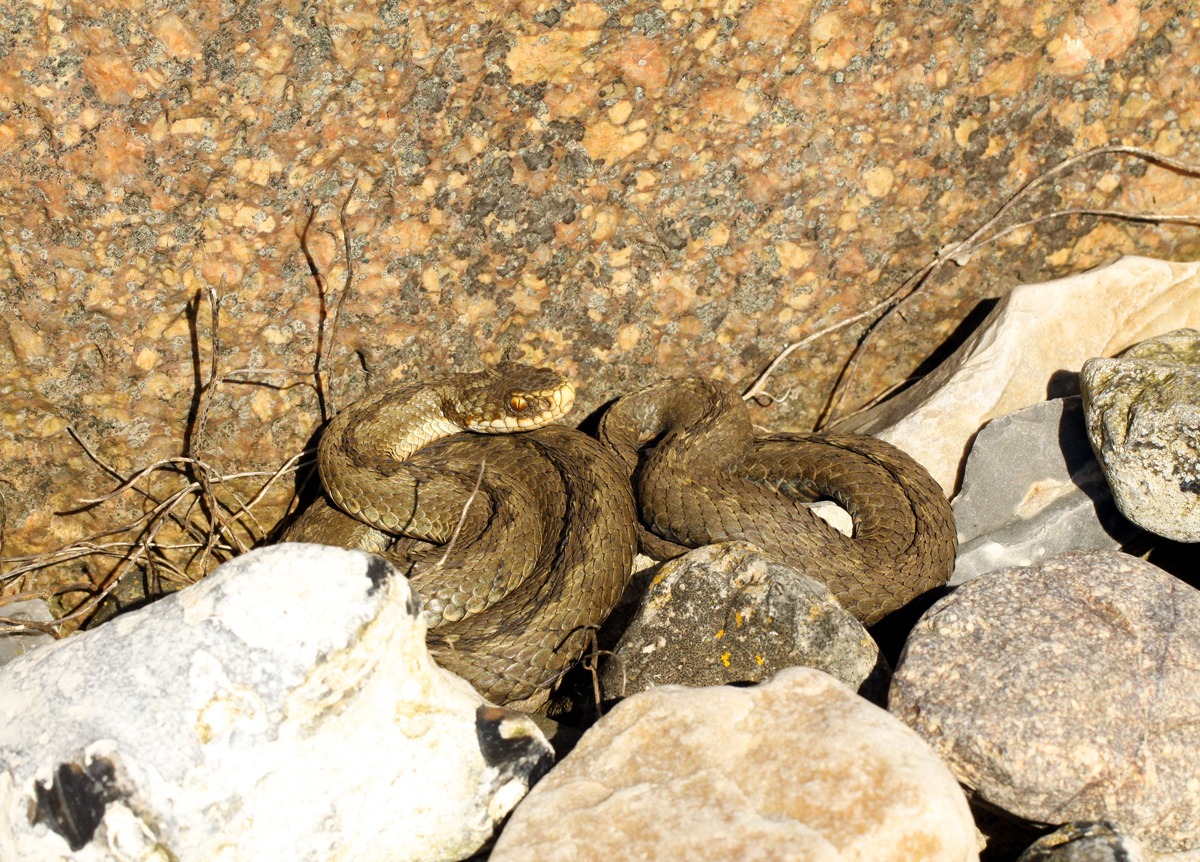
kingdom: Animalia
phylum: Chordata
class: Squamata
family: Viperidae
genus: Vipera
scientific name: Vipera berus
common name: Hugorm
